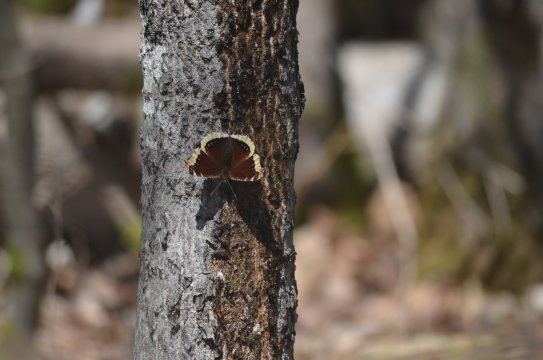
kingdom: Animalia
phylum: Arthropoda
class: Insecta
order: Lepidoptera
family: Nymphalidae
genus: Nymphalis
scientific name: Nymphalis antiopa
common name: Mourning Cloak
